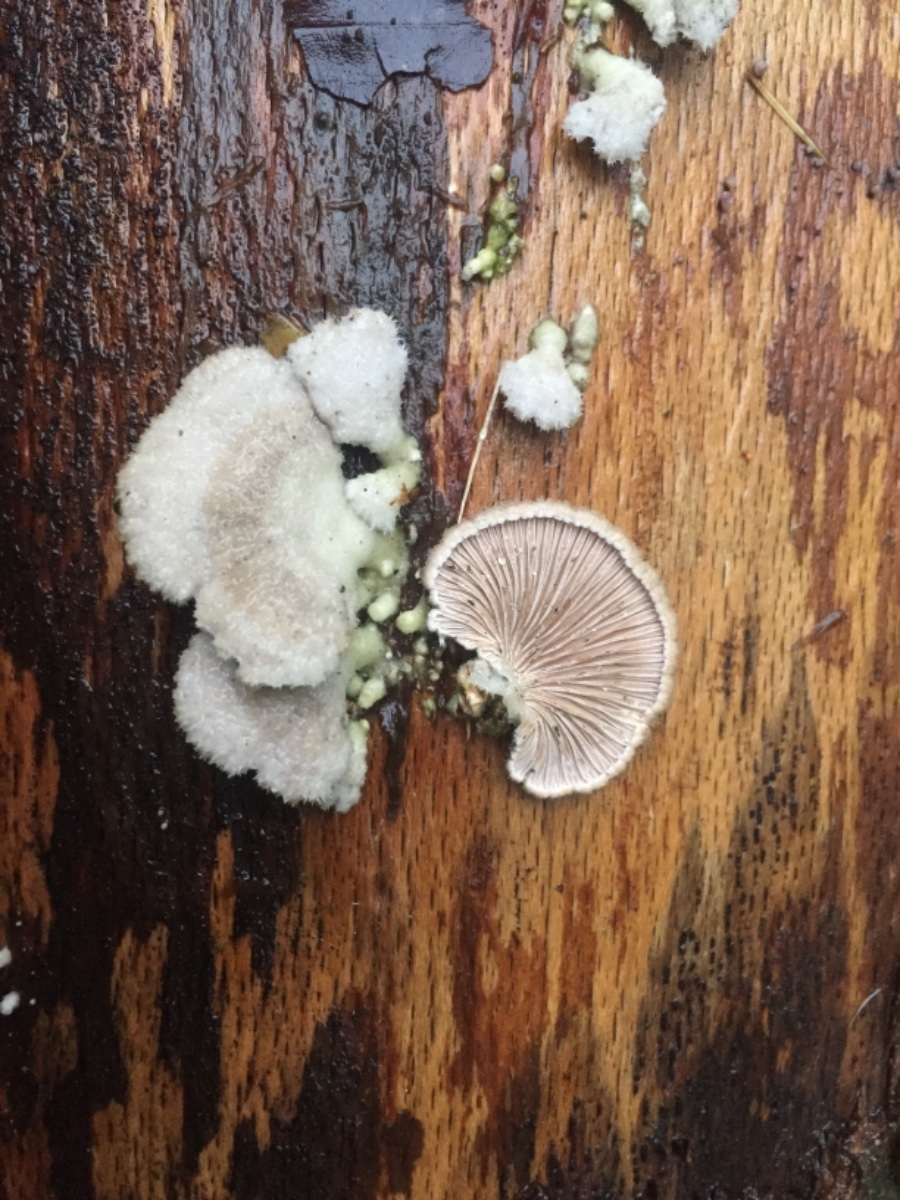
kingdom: Fungi
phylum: Basidiomycota
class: Agaricomycetes
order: Agaricales
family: Schizophyllaceae
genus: Schizophyllum
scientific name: Schizophyllum commune
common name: kløvblad
